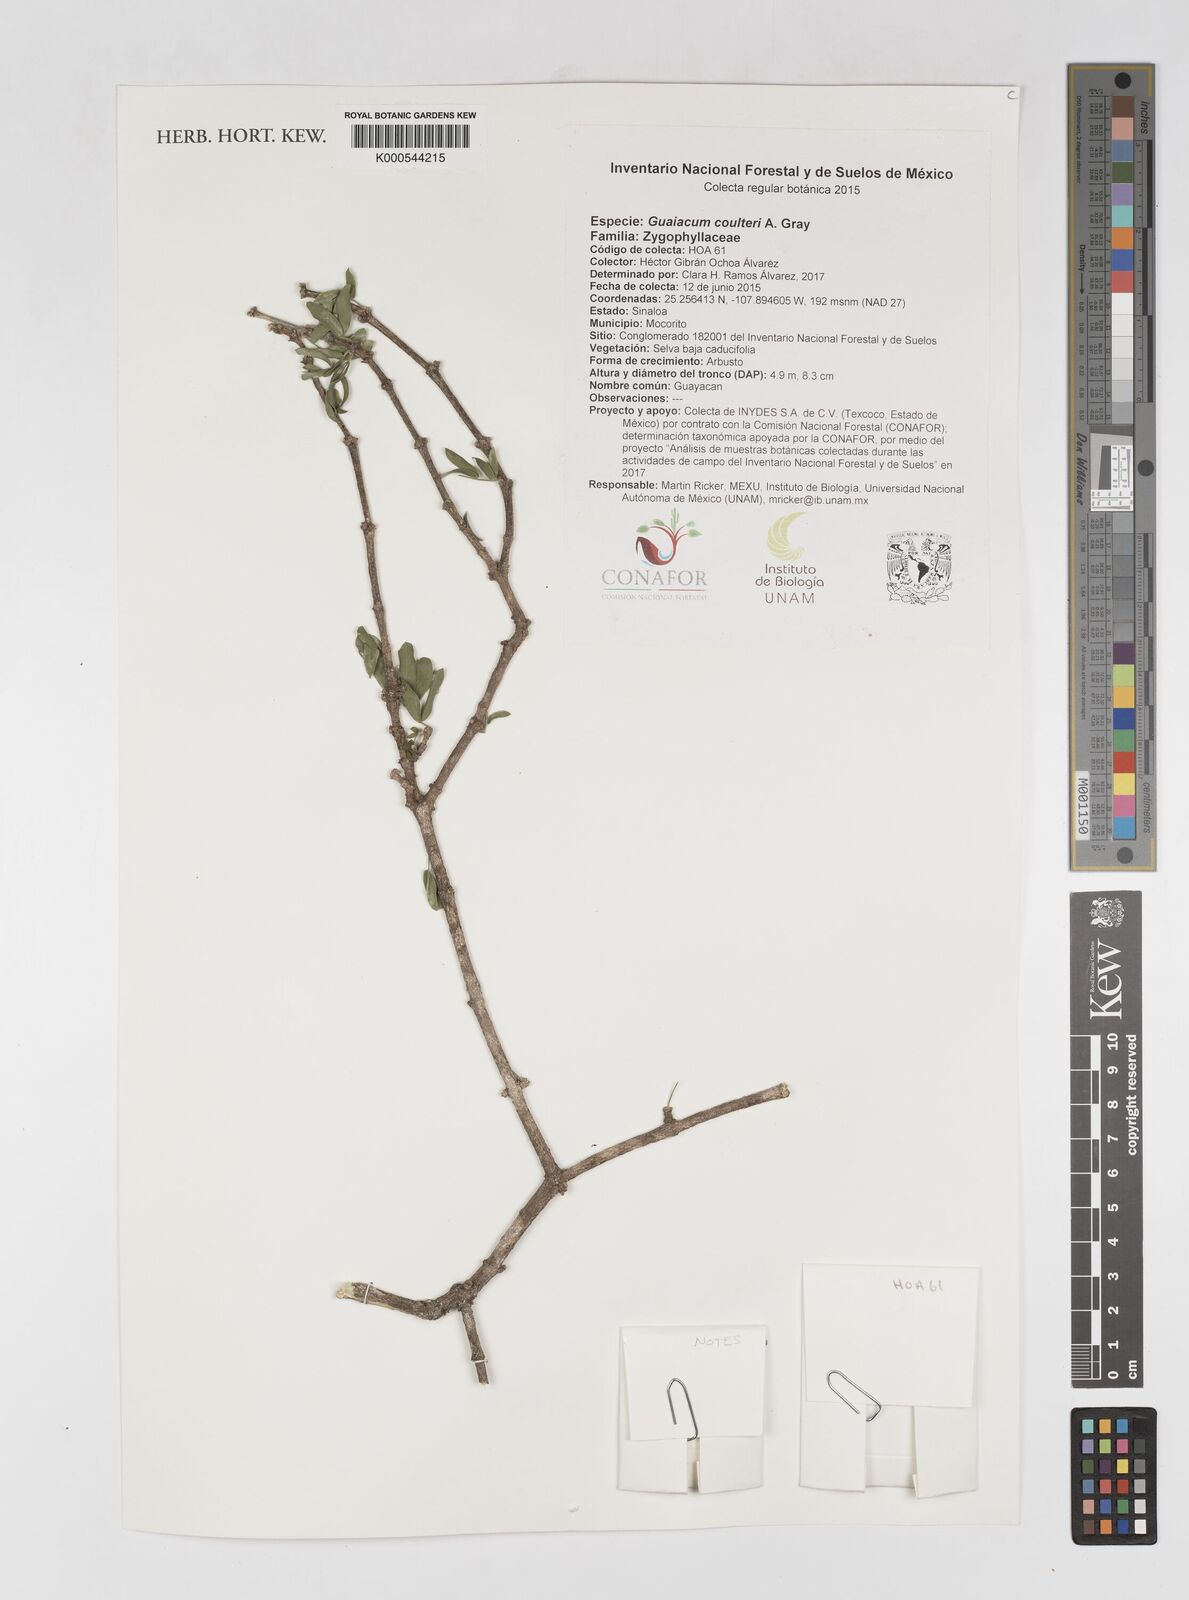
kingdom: Plantae
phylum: Tracheophyta
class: Magnoliopsida
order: Zygophyllales
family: Zygophyllaceae
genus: Guaiacum
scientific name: Guaiacum coulteri
